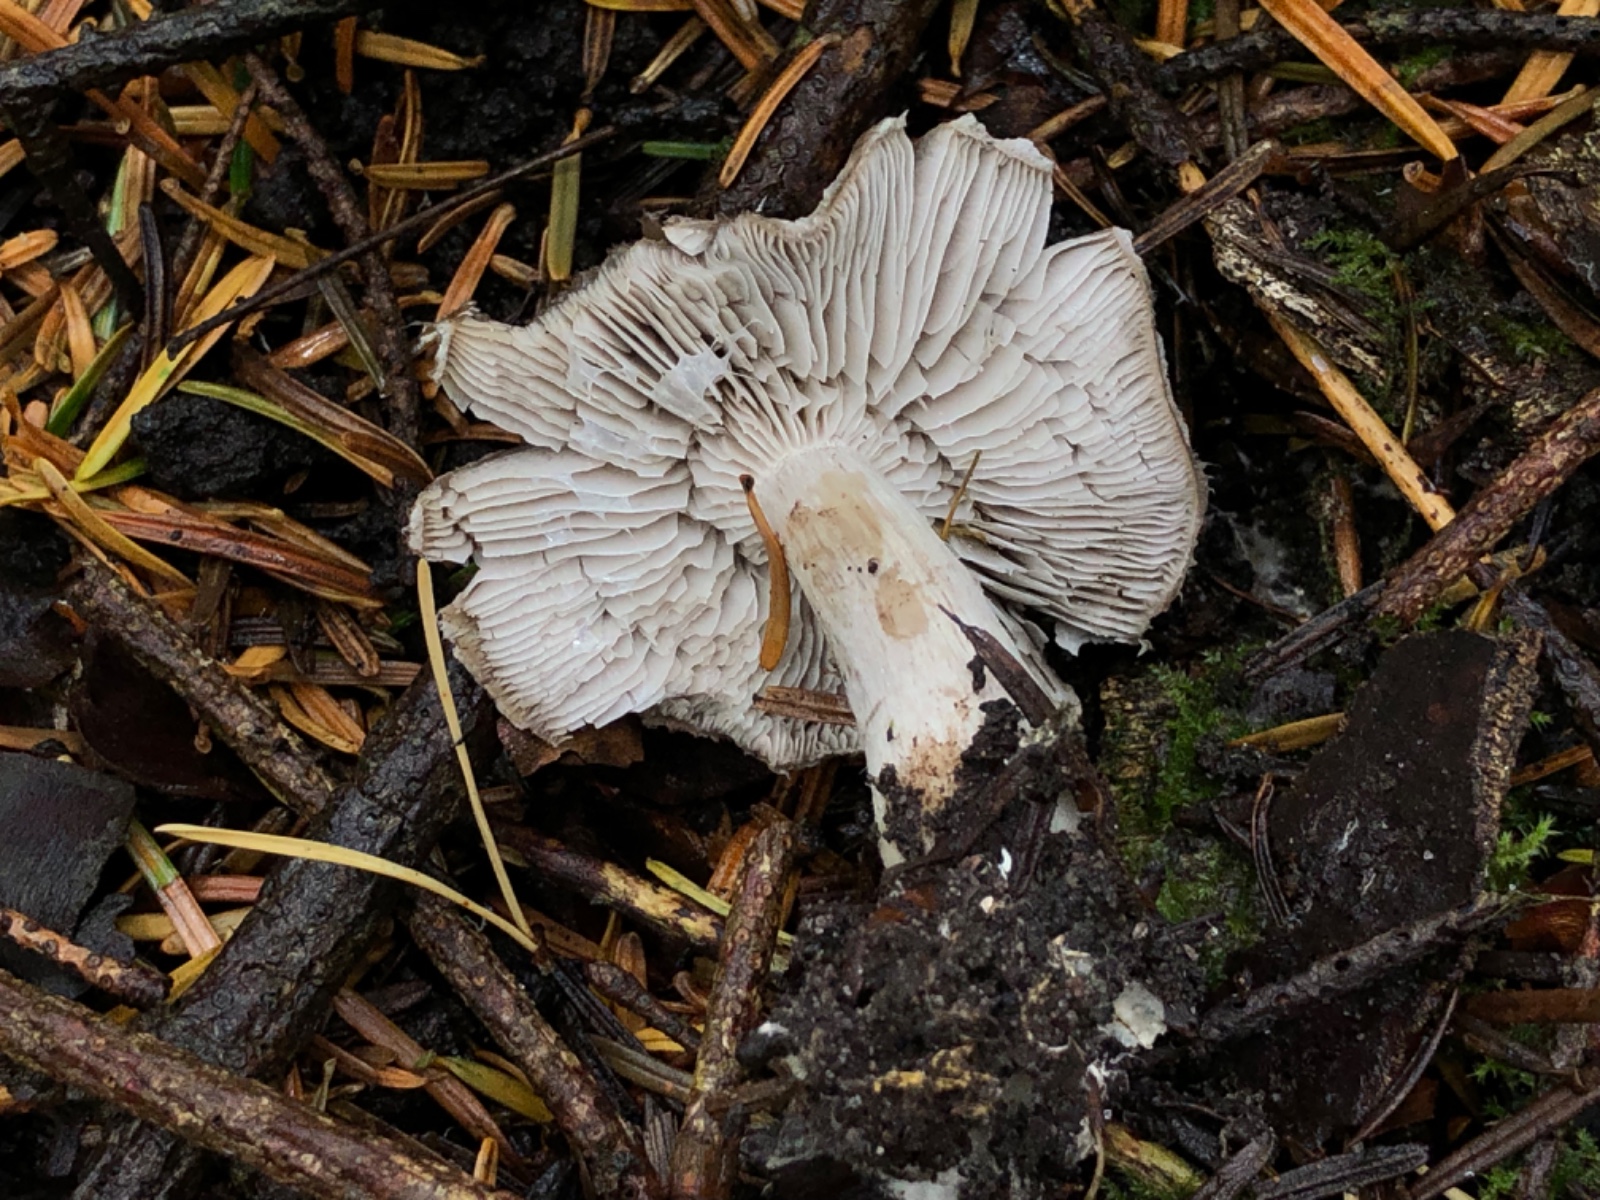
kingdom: Fungi
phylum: Basidiomycota
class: Agaricomycetes
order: Agaricales
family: Tricholomataceae
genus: Tricholoma
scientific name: Tricholoma
